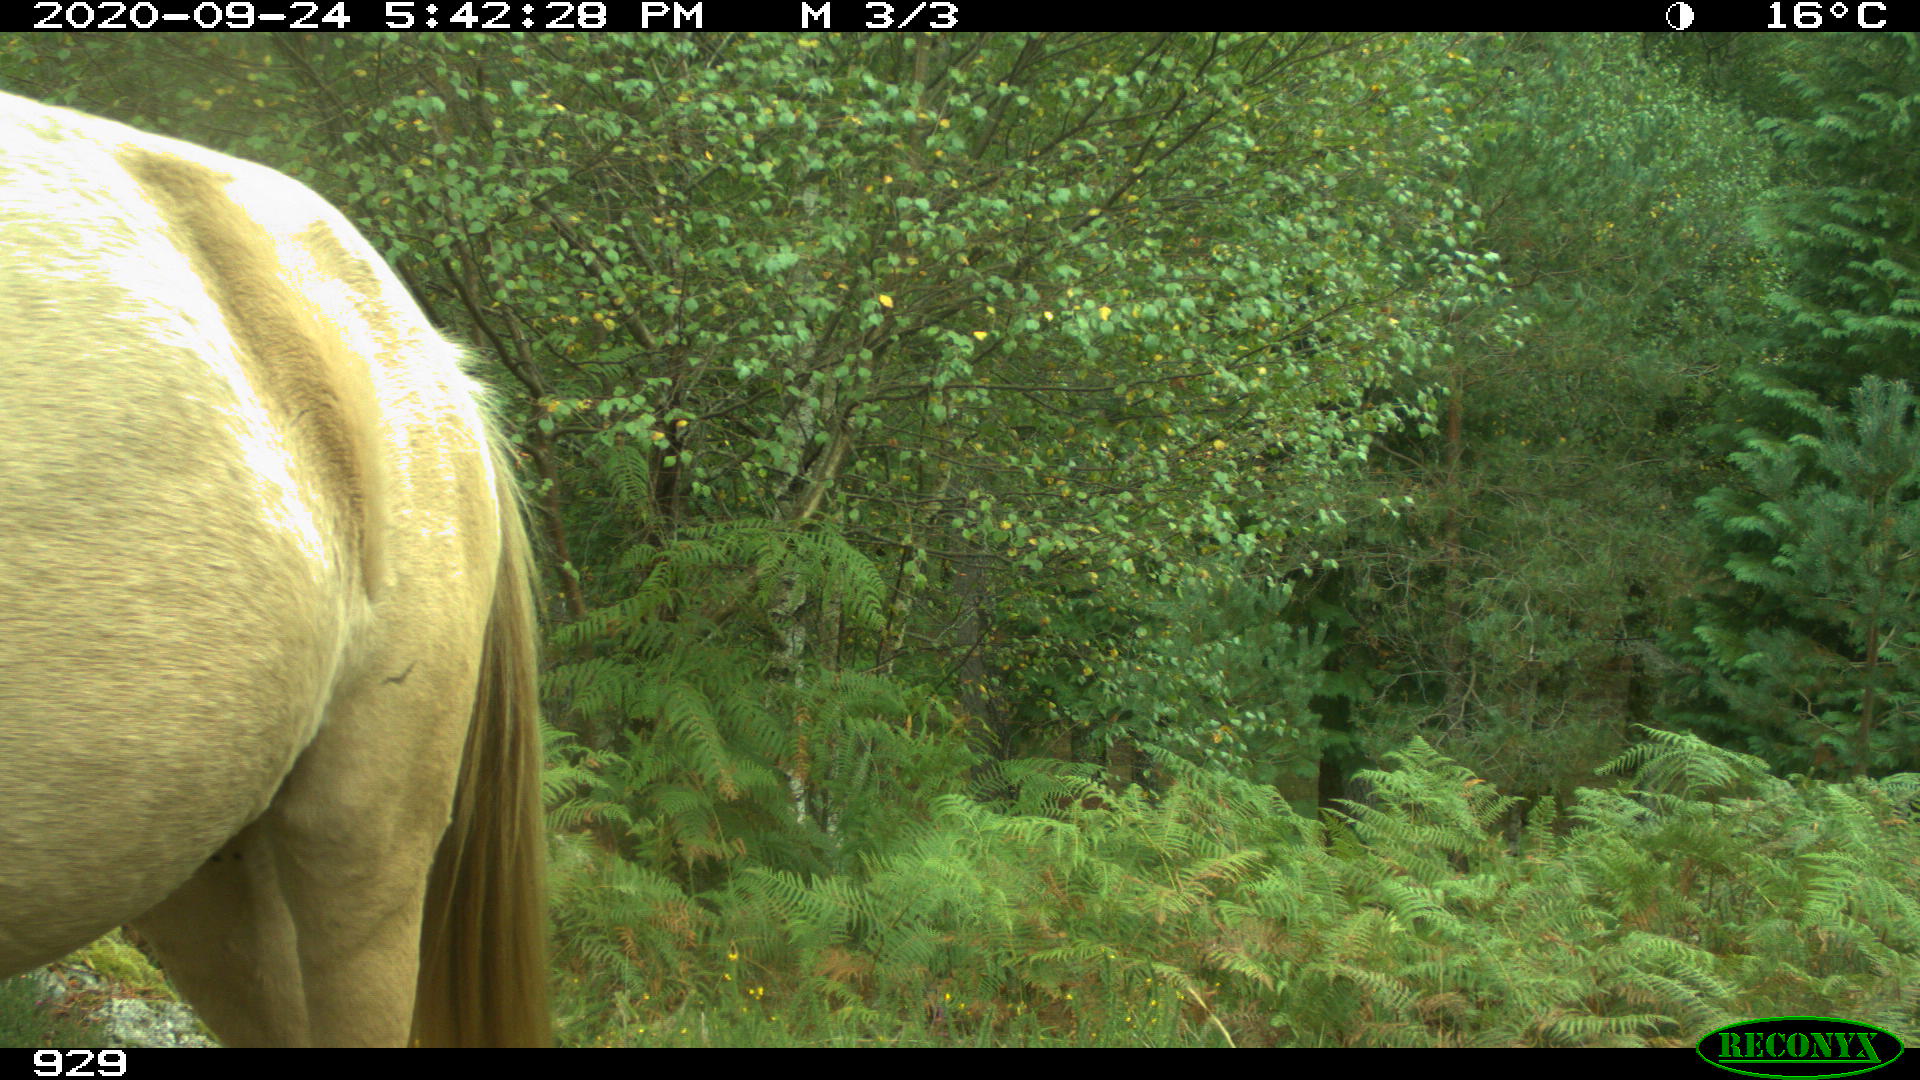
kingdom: Animalia
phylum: Chordata
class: Mammalia
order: Perissodactyla
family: Equidae
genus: Equus
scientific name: Equus caballus
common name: Horse
